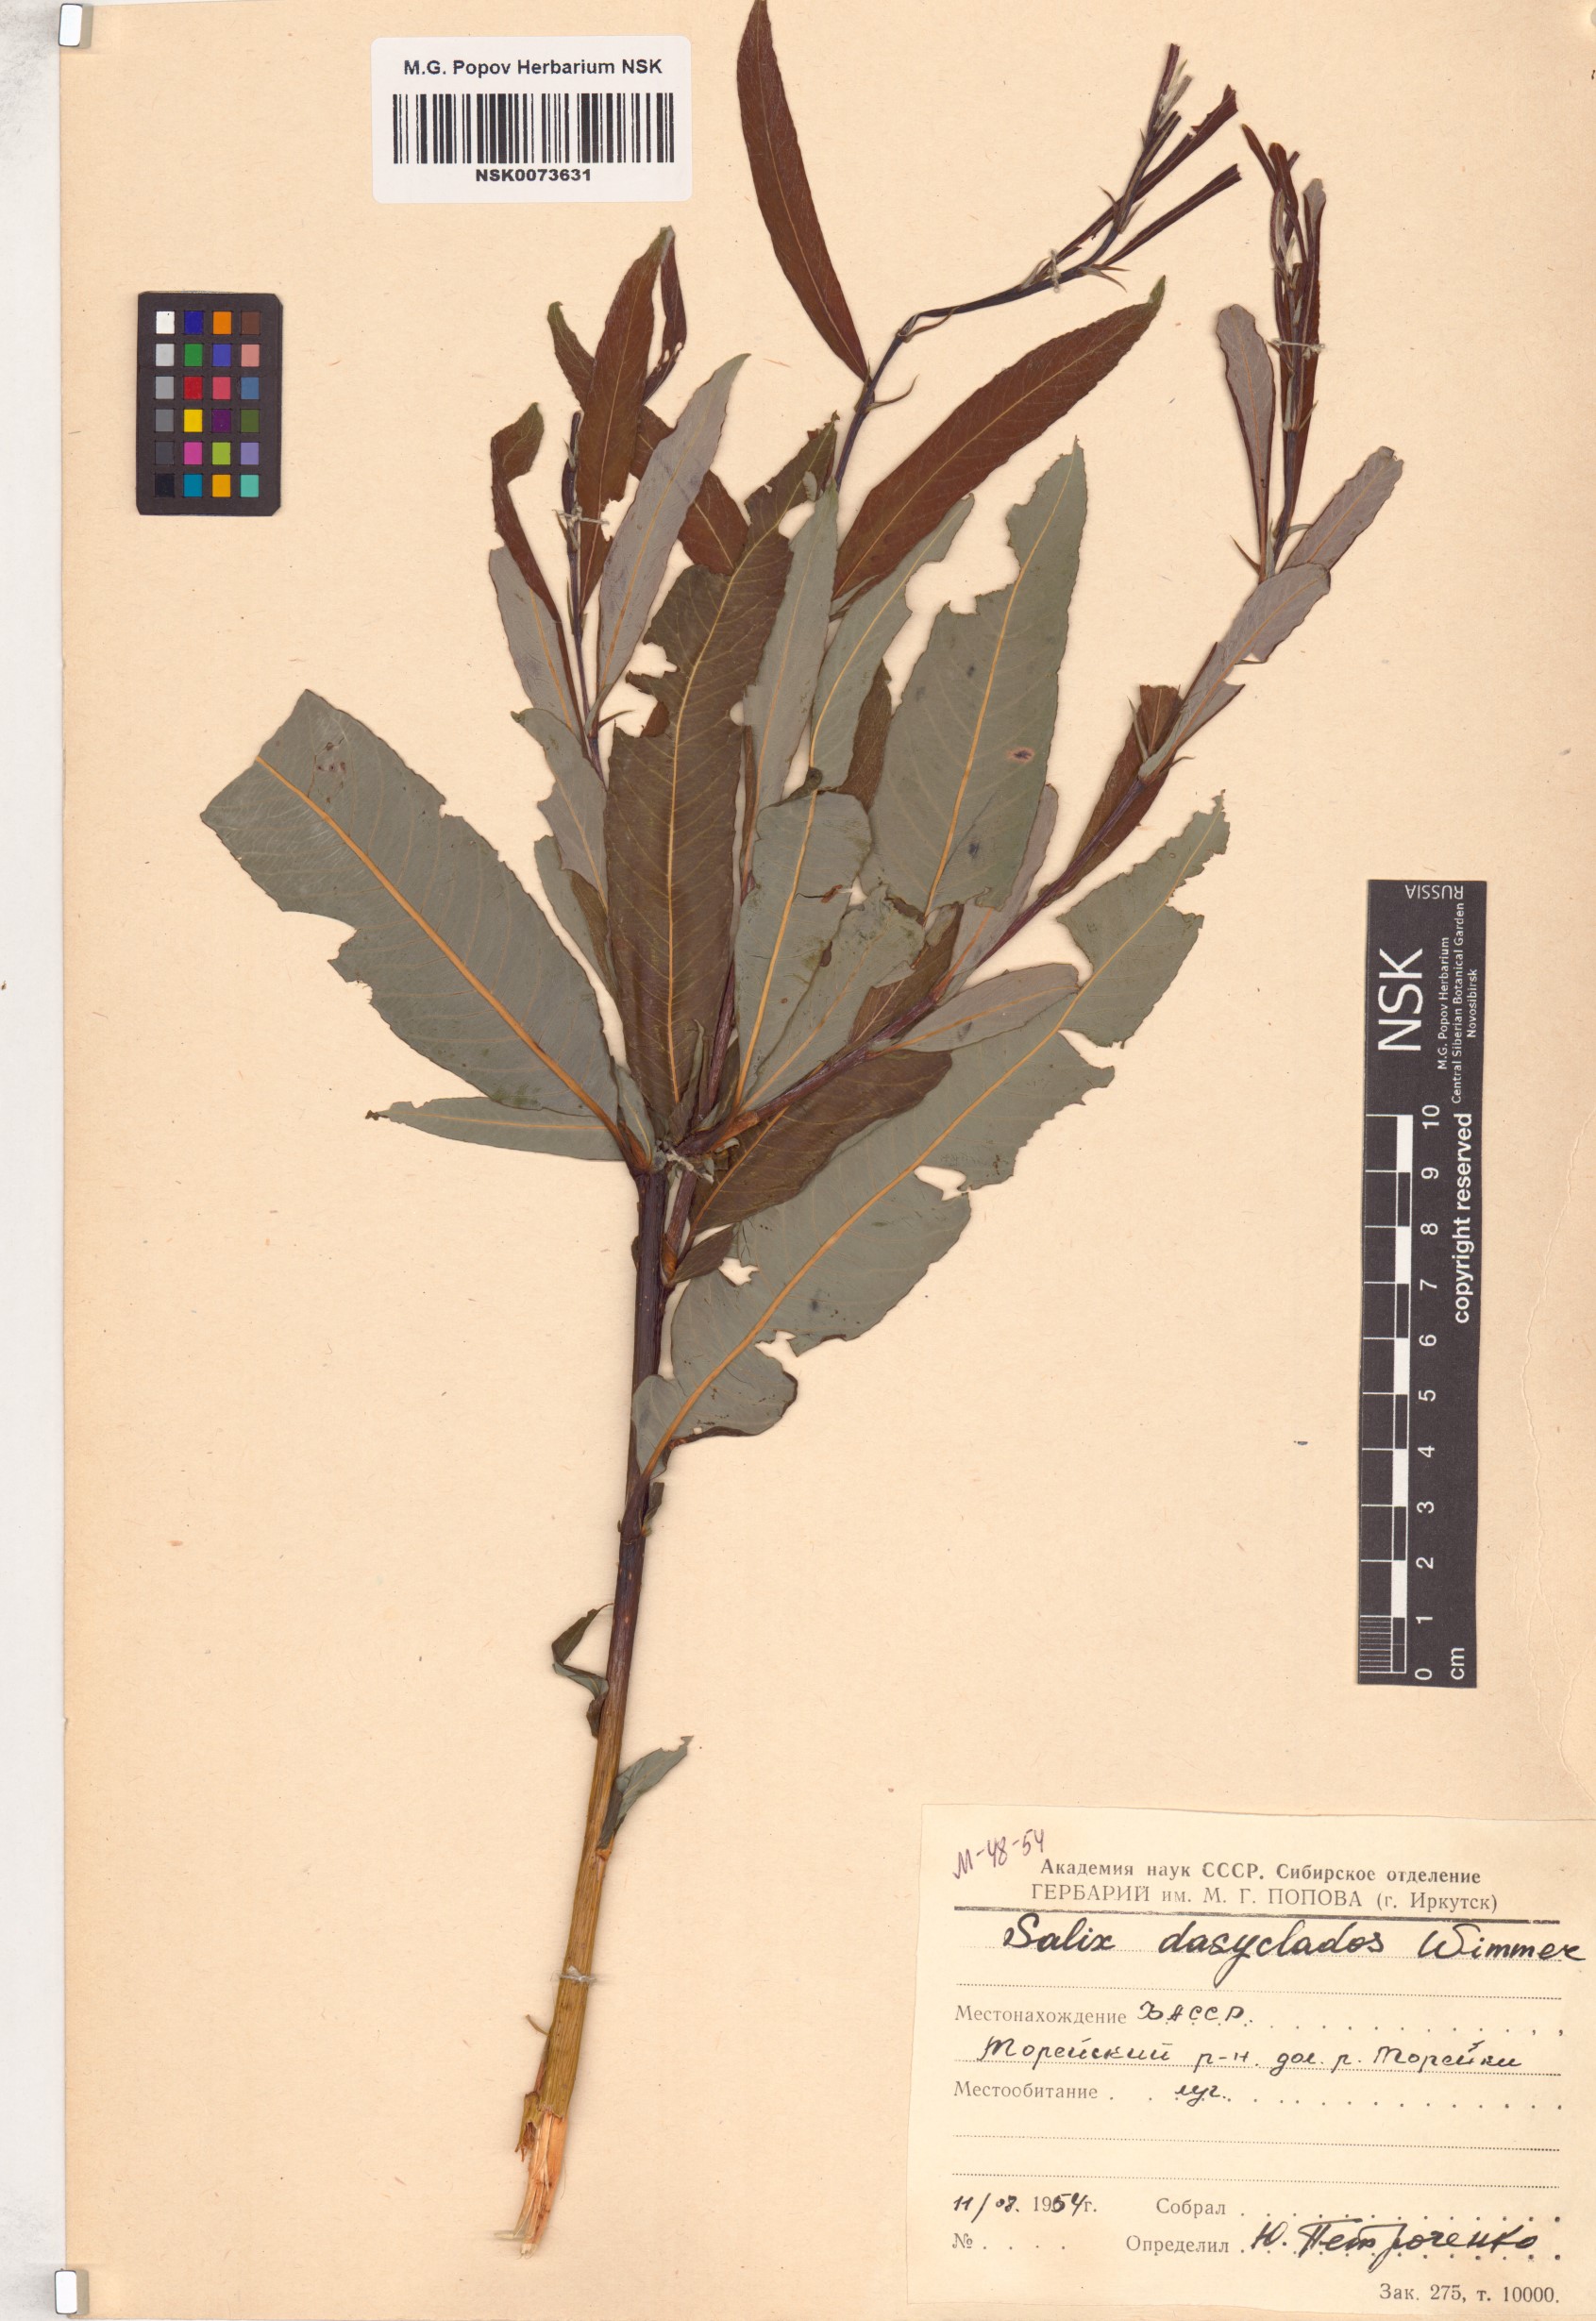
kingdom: Plantae
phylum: Tracheophyta
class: Magnoliopsida
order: Malpighiales
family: Salicaceae
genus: Salix
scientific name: Salix gmelinii
